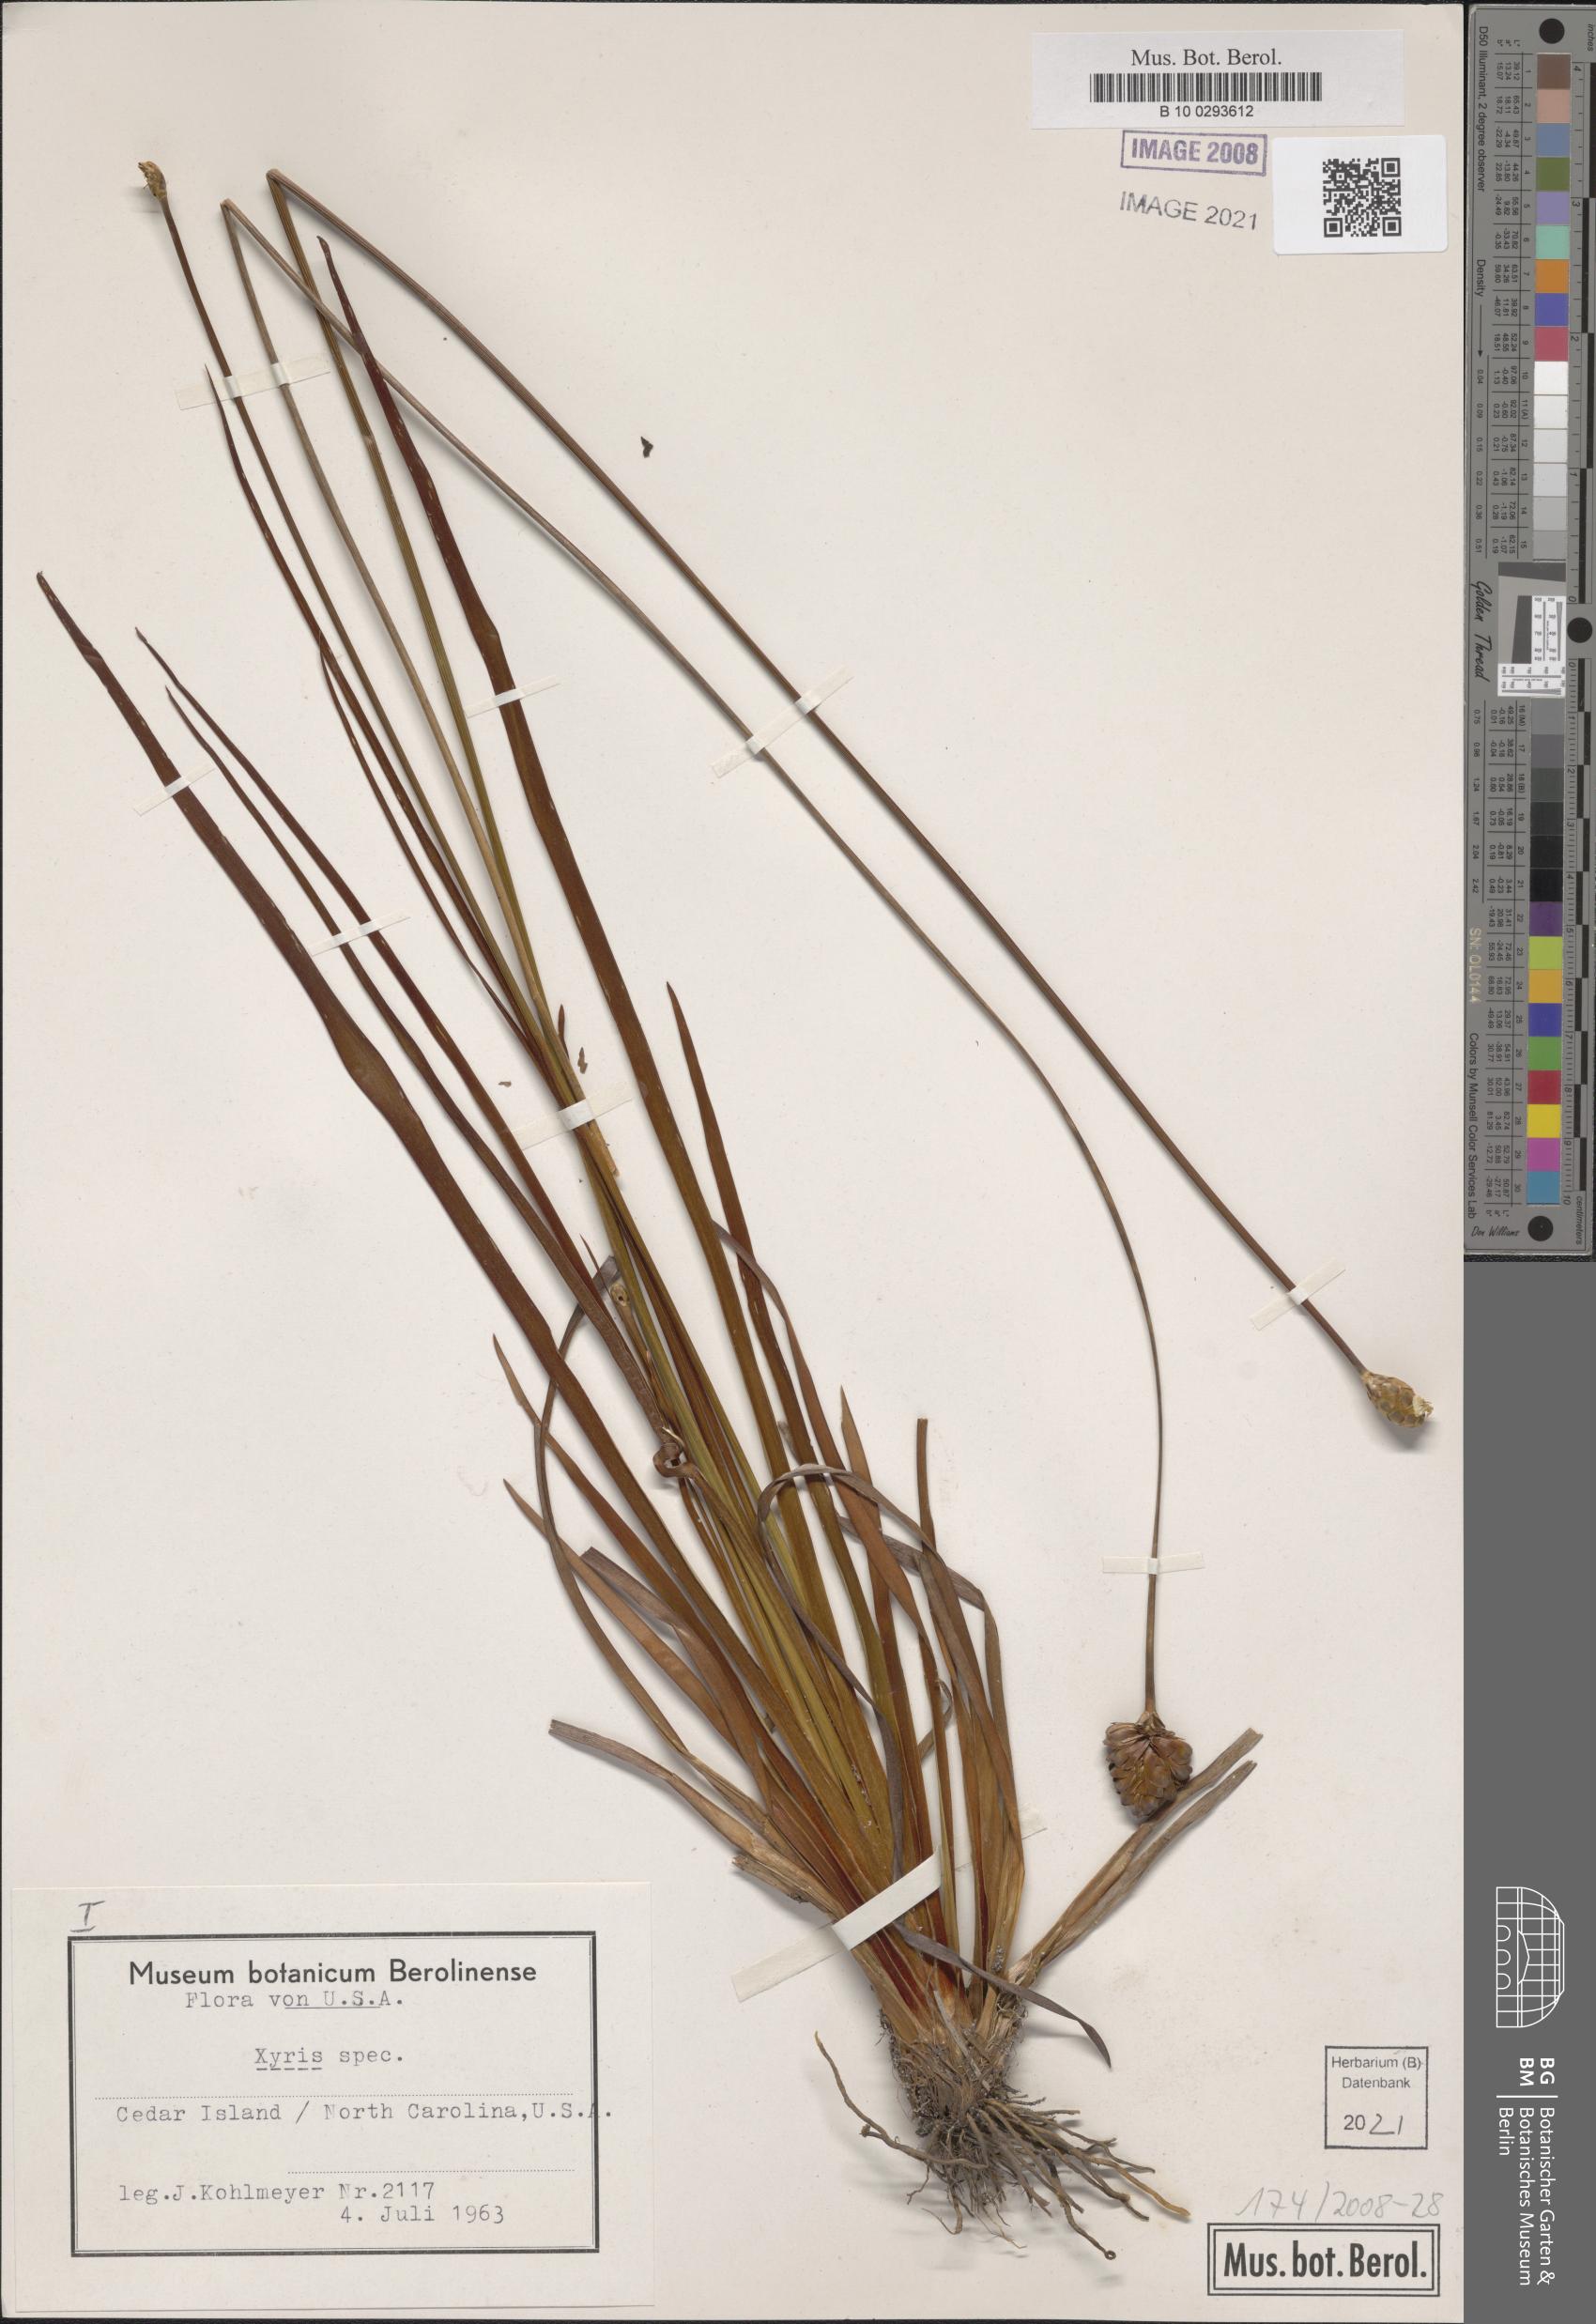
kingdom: Plantae
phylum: Tracheophyta
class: Liliopsida
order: Poales
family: Xyridaceae
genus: Xyris
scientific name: Xyris
